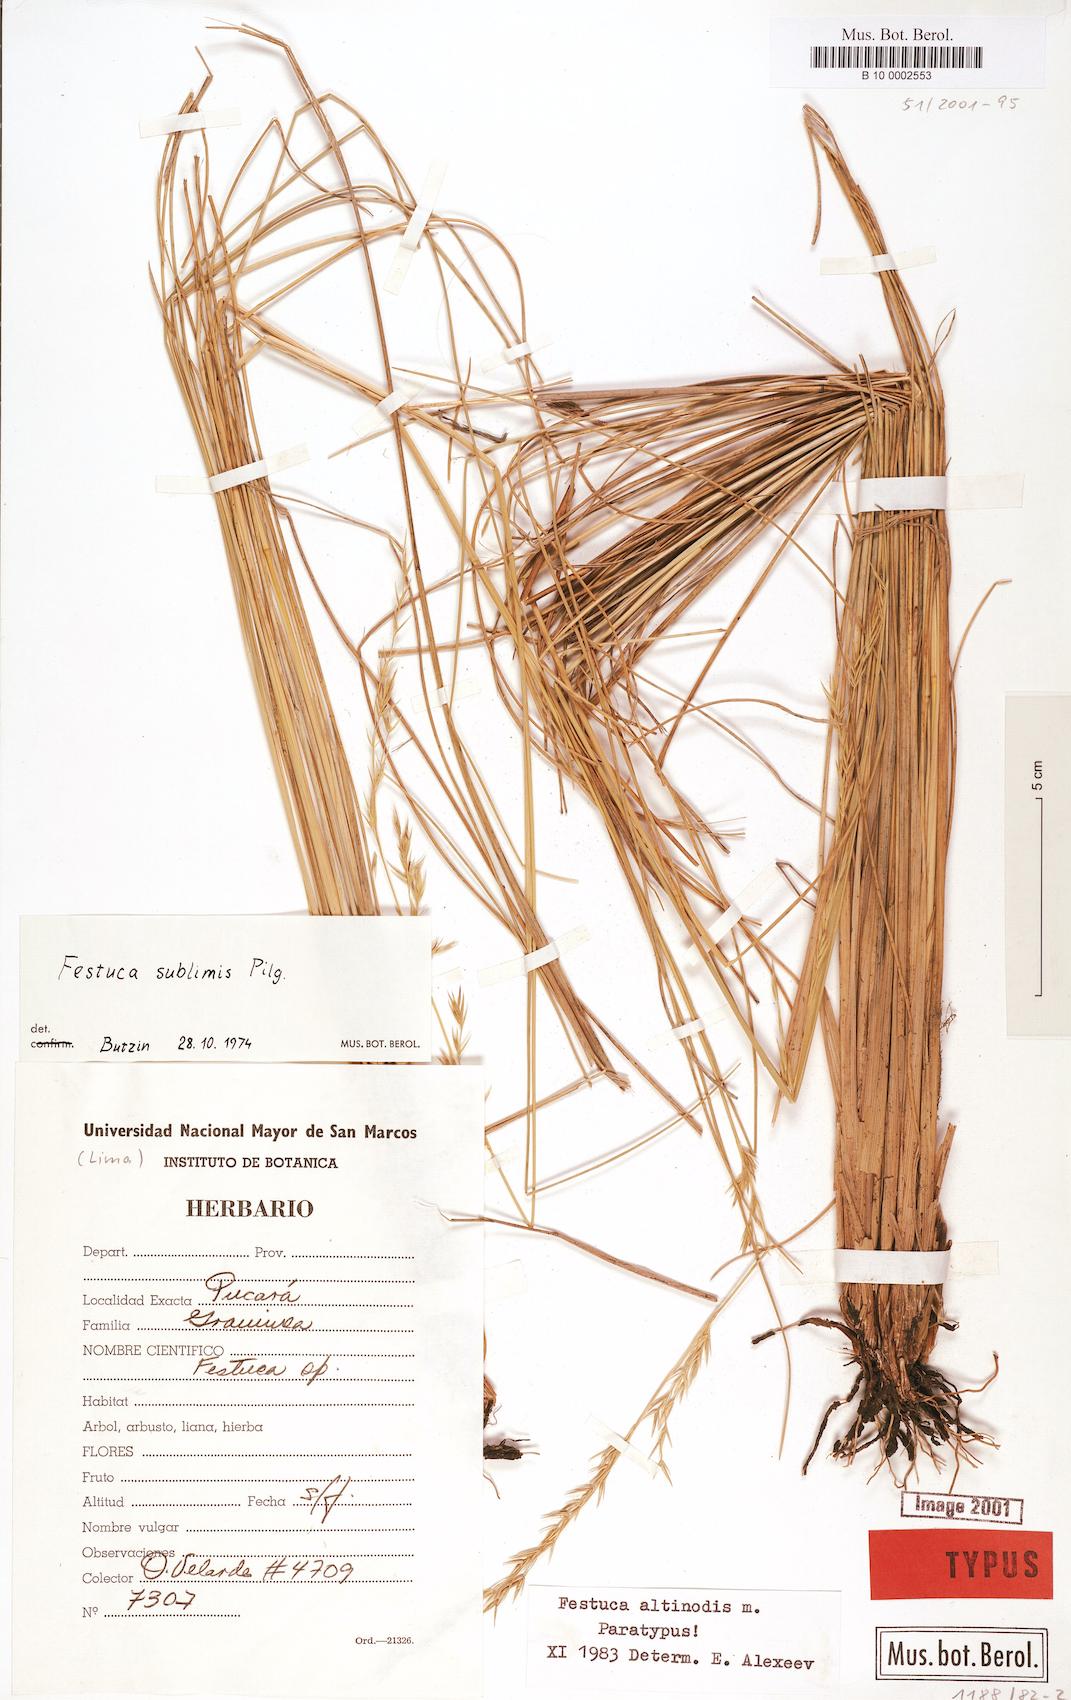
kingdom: Plantae
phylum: Tracheophyta
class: Liliopsida
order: Poales
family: Poaceae
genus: Festuca
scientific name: Festuca
